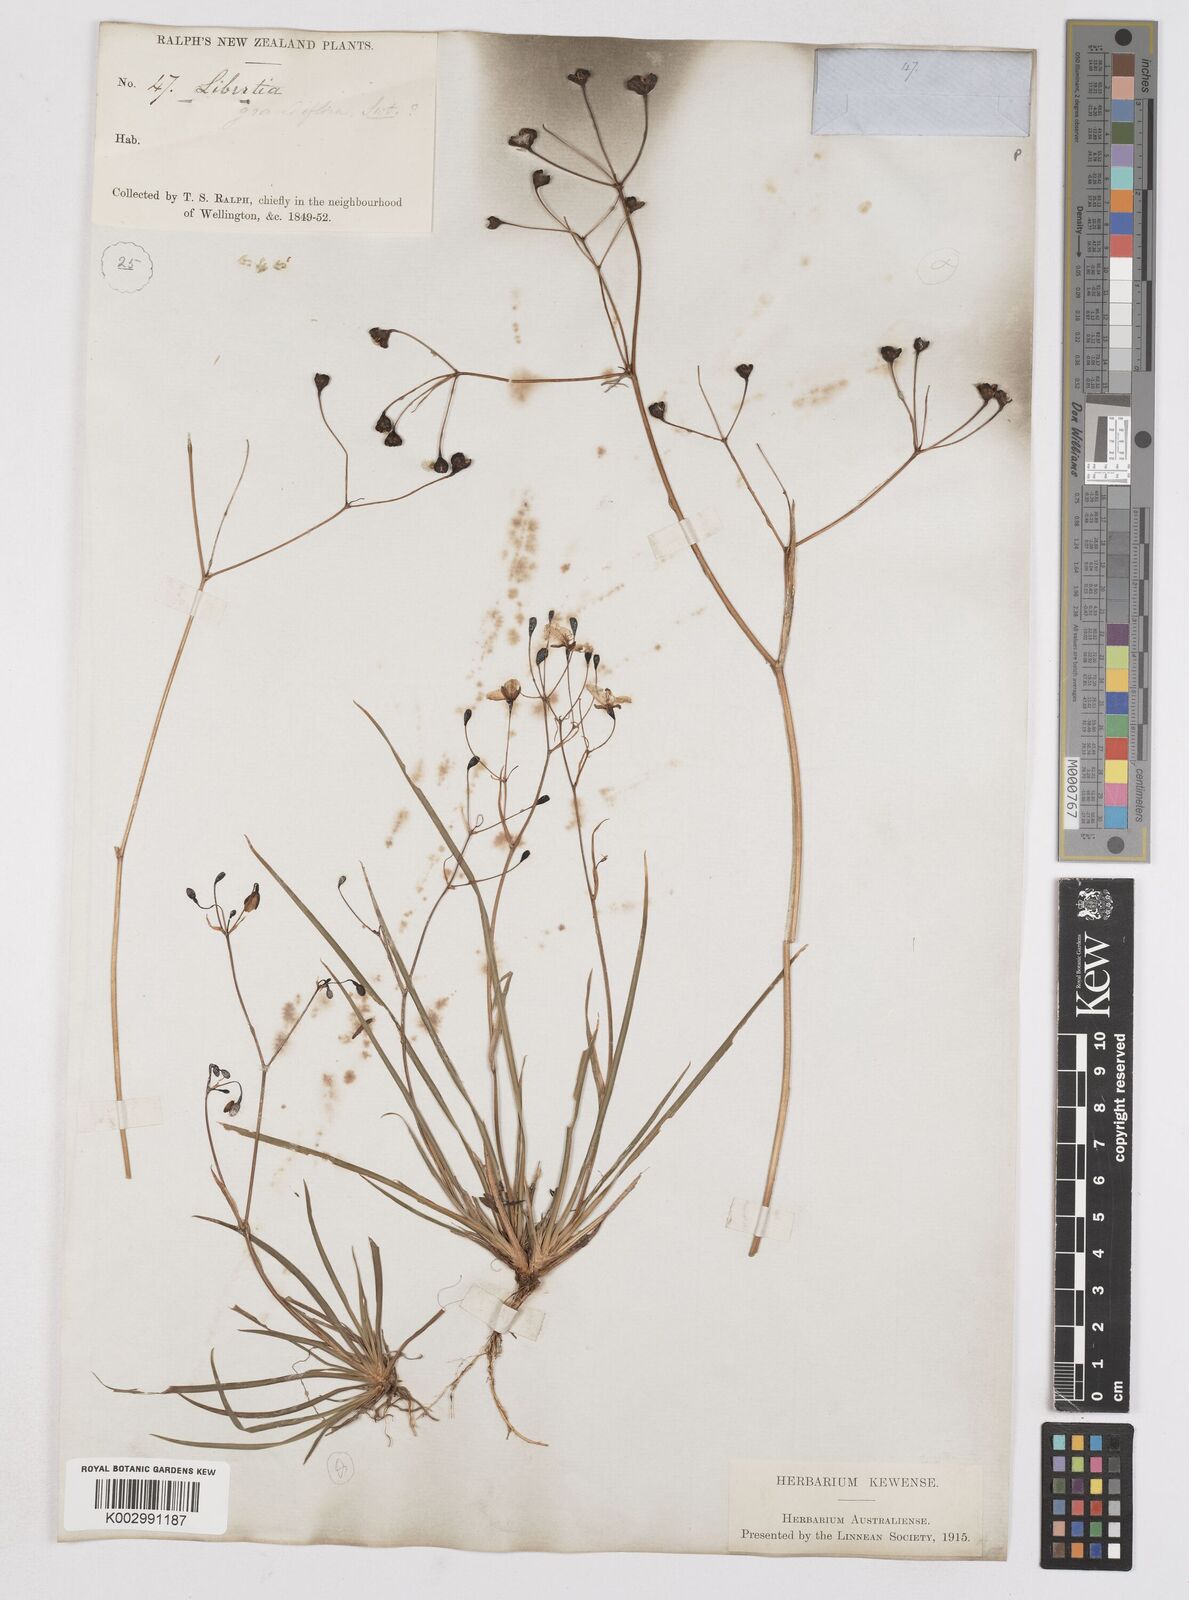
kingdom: Plantae
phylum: Tracheophyta
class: Liliopsida
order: Asparagales
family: Iridaceae
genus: Libertia
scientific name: Libertia ixioides
